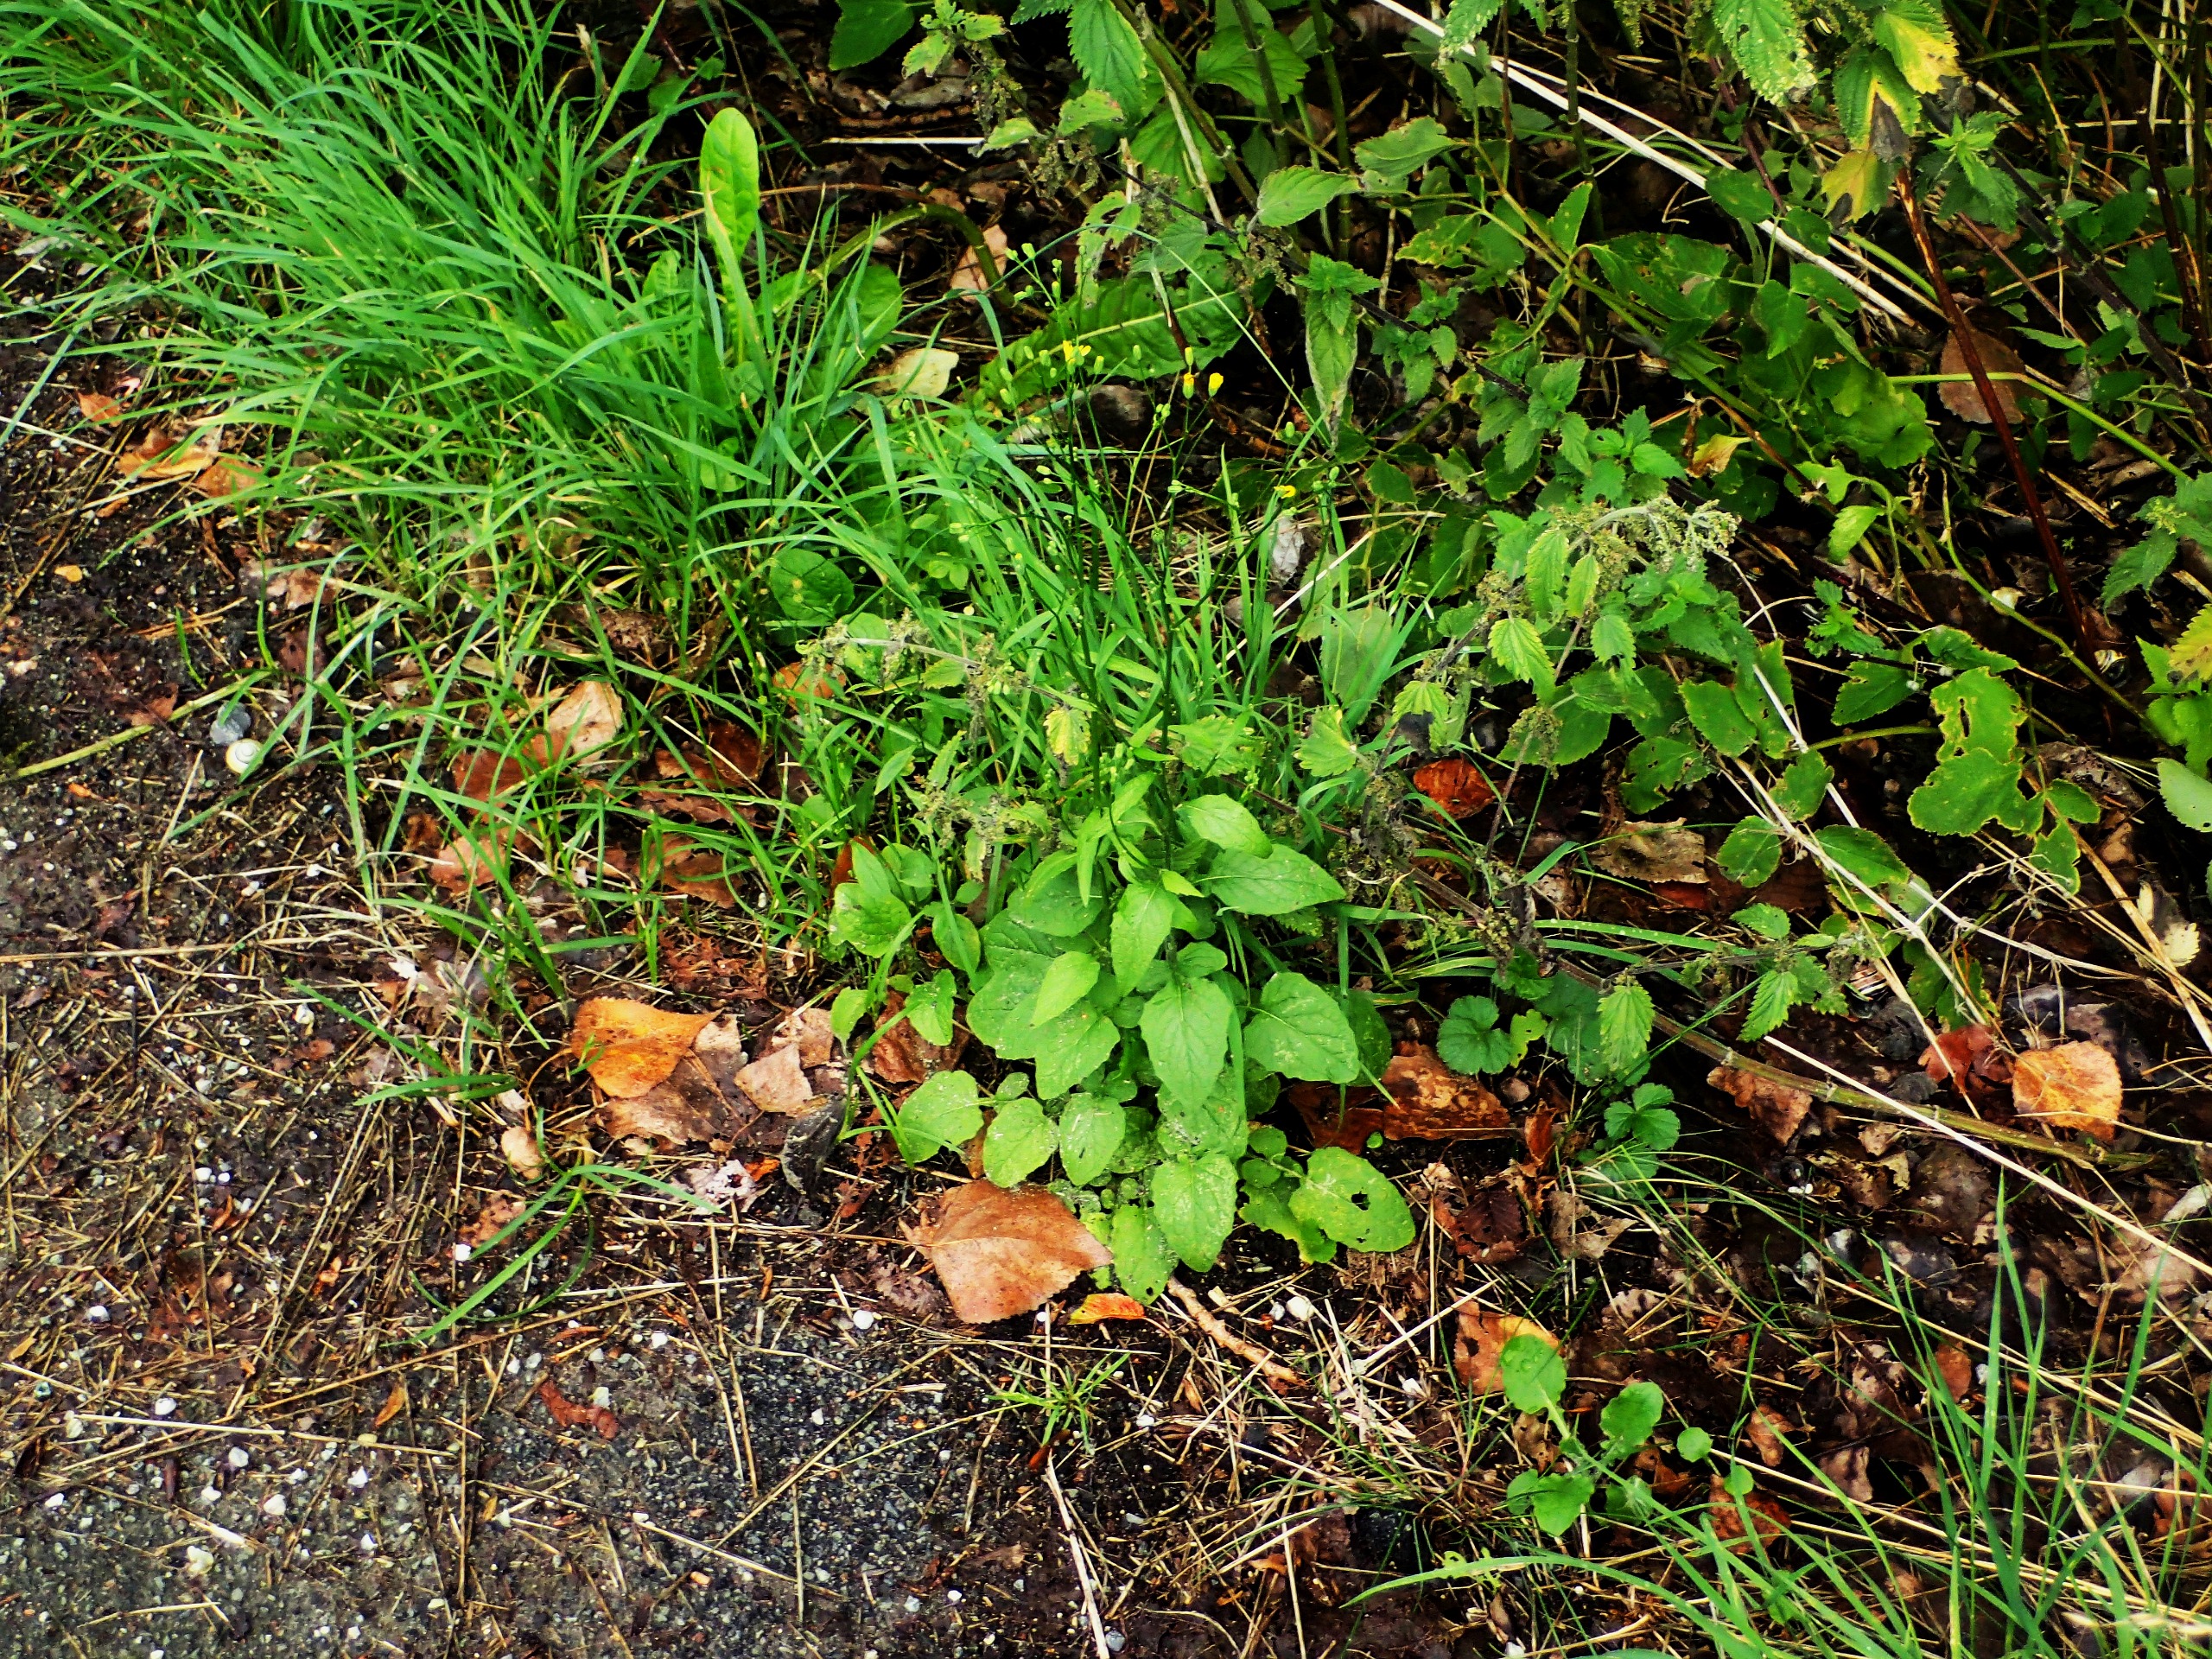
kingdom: Plantae
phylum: Tracheophyta
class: Magnoliopsida
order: Asterales
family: Asteraceae
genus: Lapsana
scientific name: Lapsana communis
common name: Haremad
